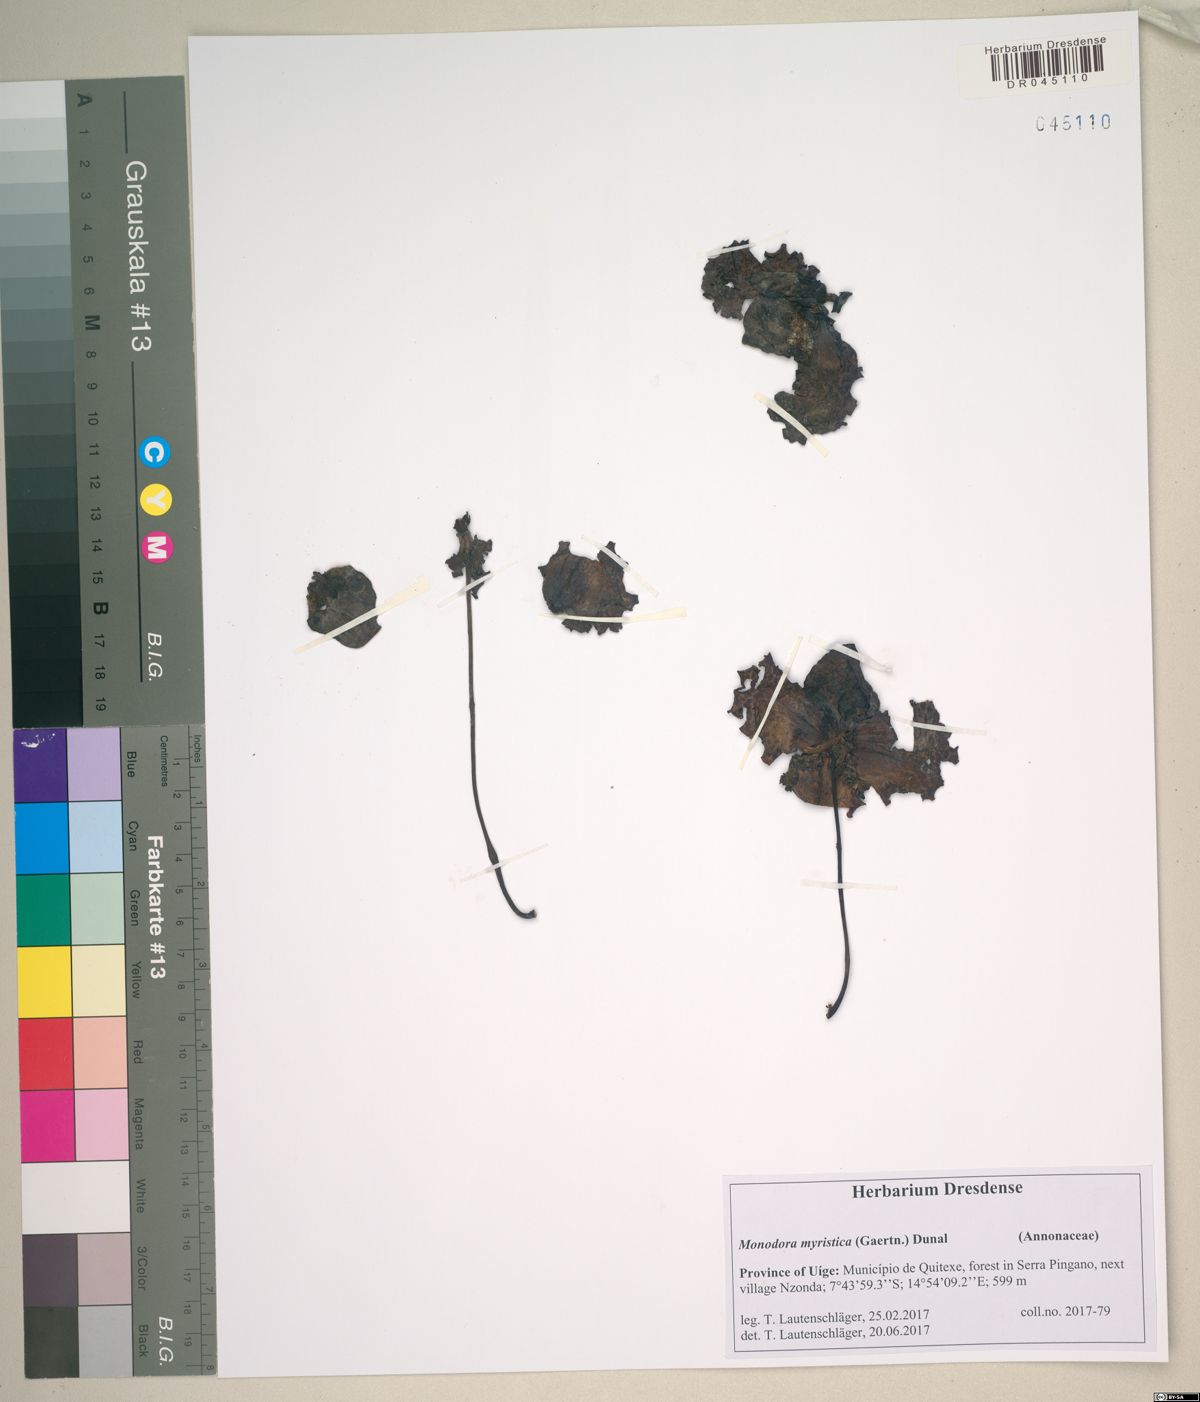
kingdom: Plantae
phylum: Tracheophyta
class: Magnoliopsida
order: Magnoliales
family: Annonaceae
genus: Monodora
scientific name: Monodora myristica
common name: African nutmeg
